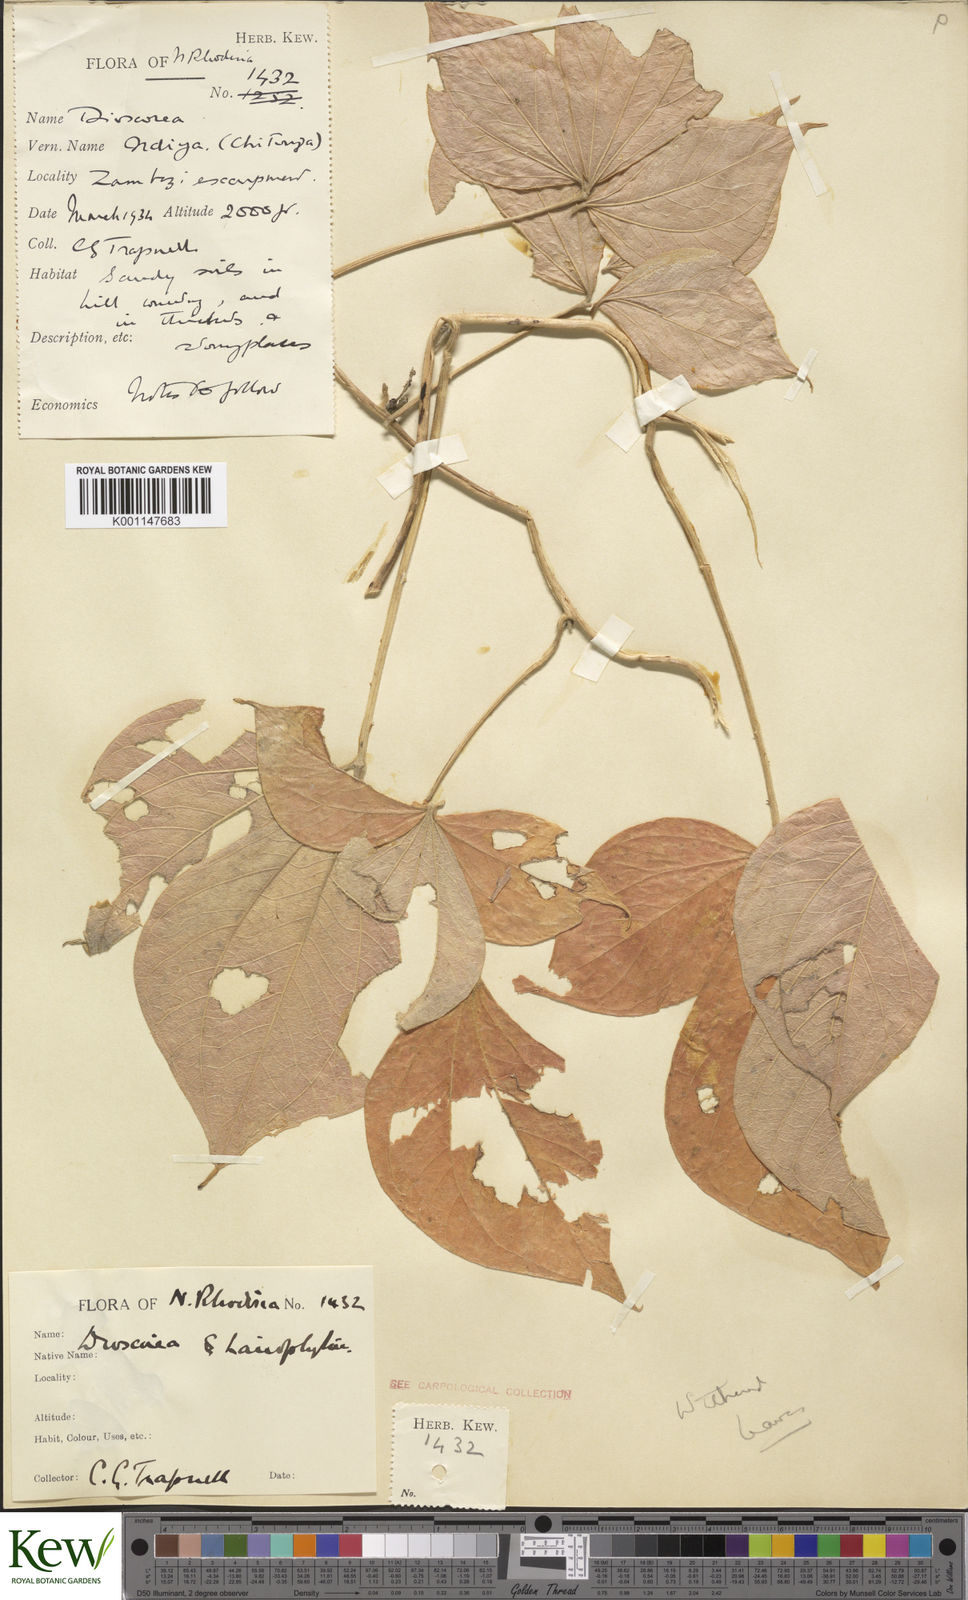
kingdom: Plantae
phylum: Tracheophyta
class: Liliopsida
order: Dioscoreales
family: Dioscoreaceae
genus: Dioscorea
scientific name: Dioscorea dumetorum
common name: African bitter yam
